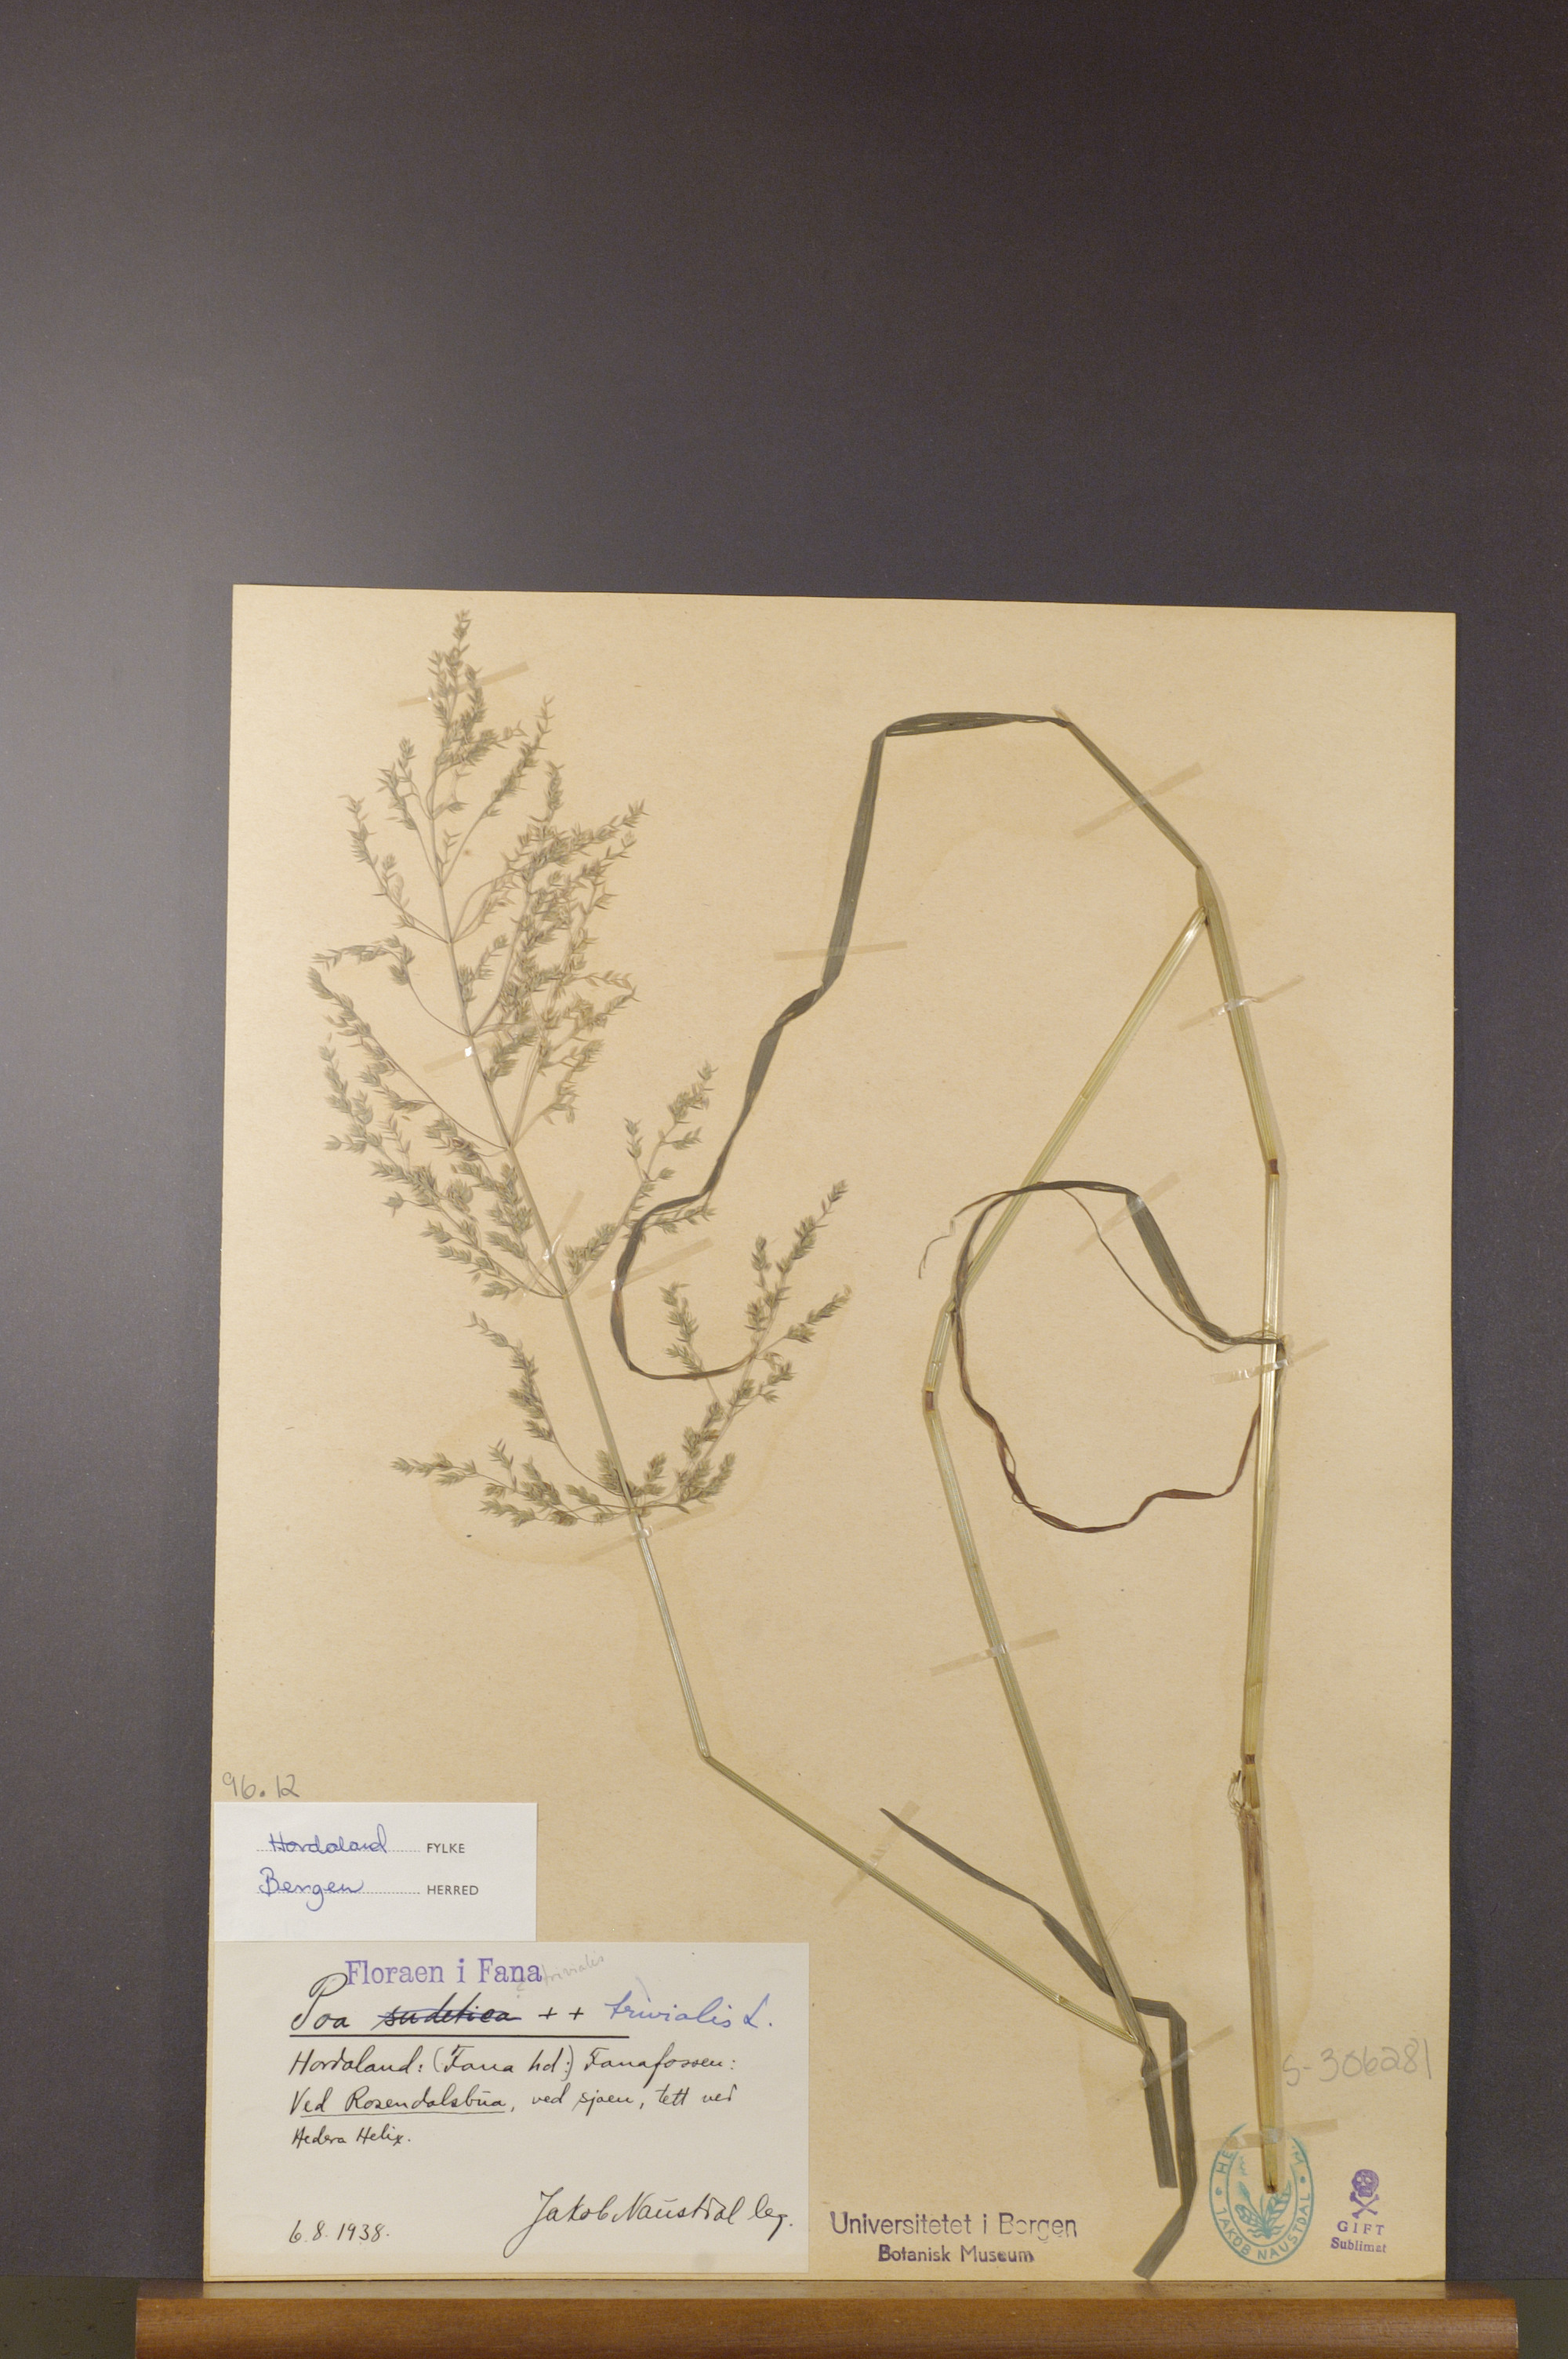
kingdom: Plantae
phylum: Tracheophyta
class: Liliopsida
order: Poales
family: Poaceae
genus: Poa
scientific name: Poa trivialis
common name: Rough bluegrass
